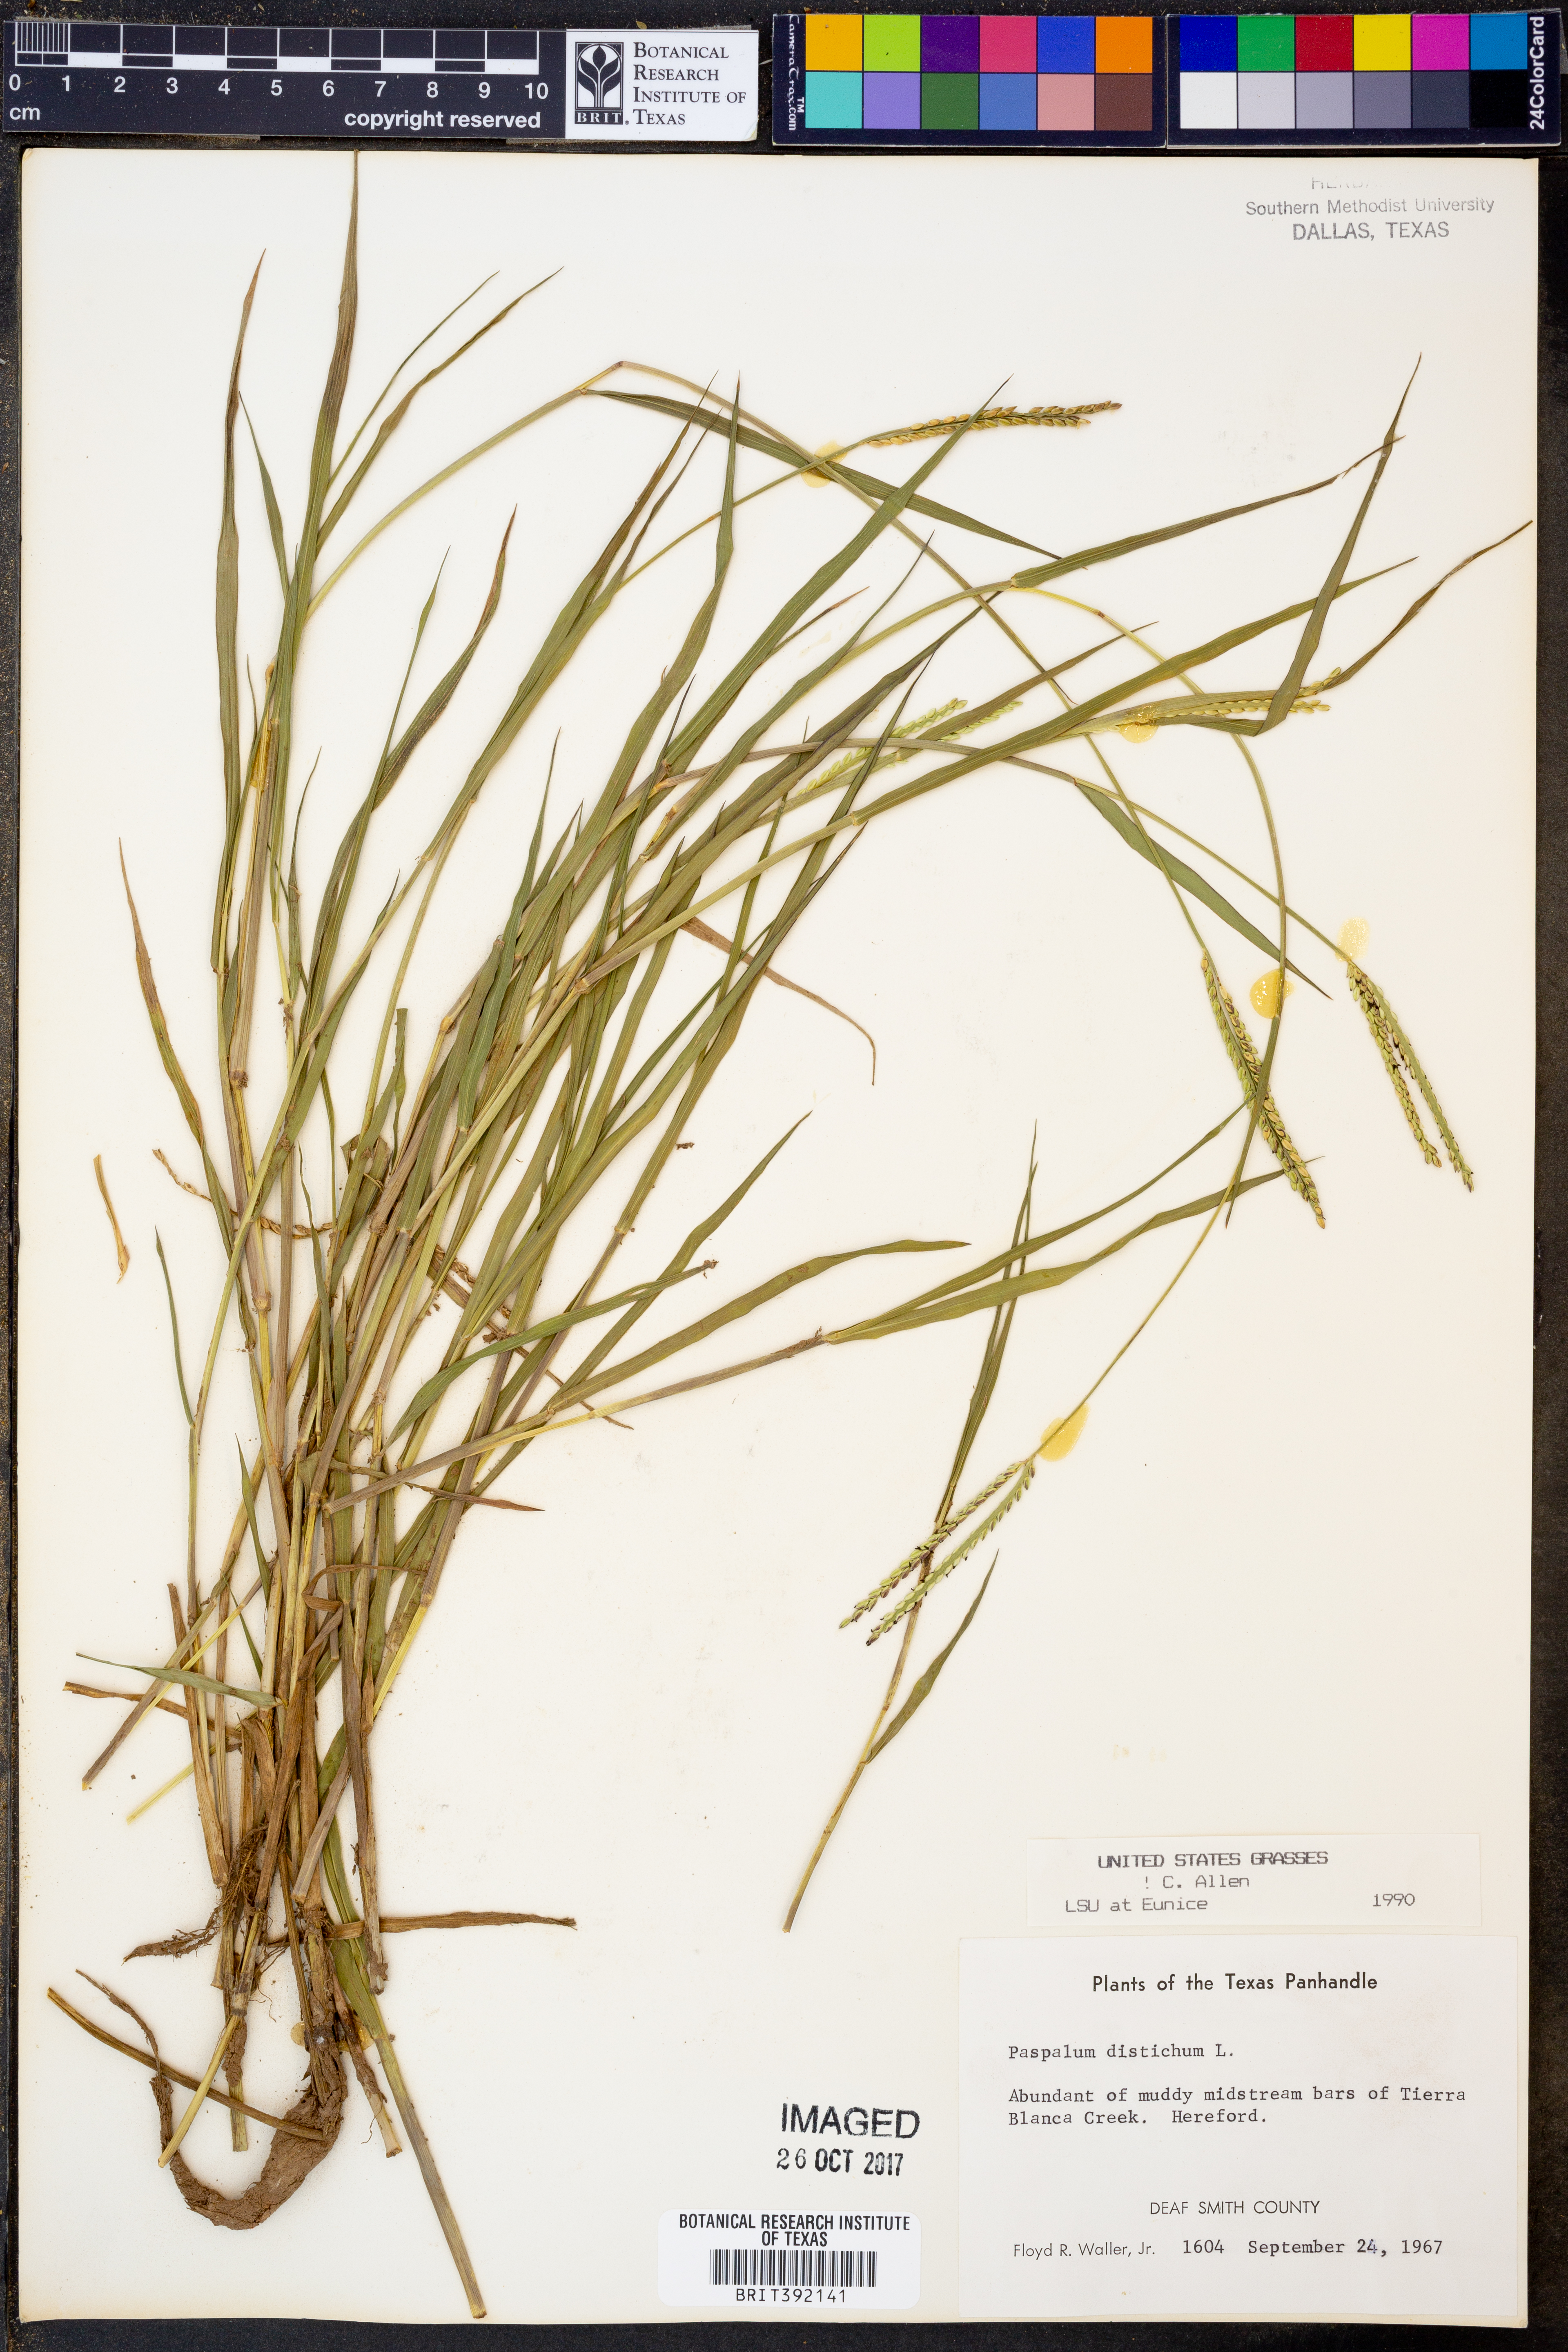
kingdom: Plantae
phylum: Tracheophyta
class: Liliopsida
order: Poales
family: Poaceae
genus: Paspalum
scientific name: Paspalum distichum
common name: Knotgrass
